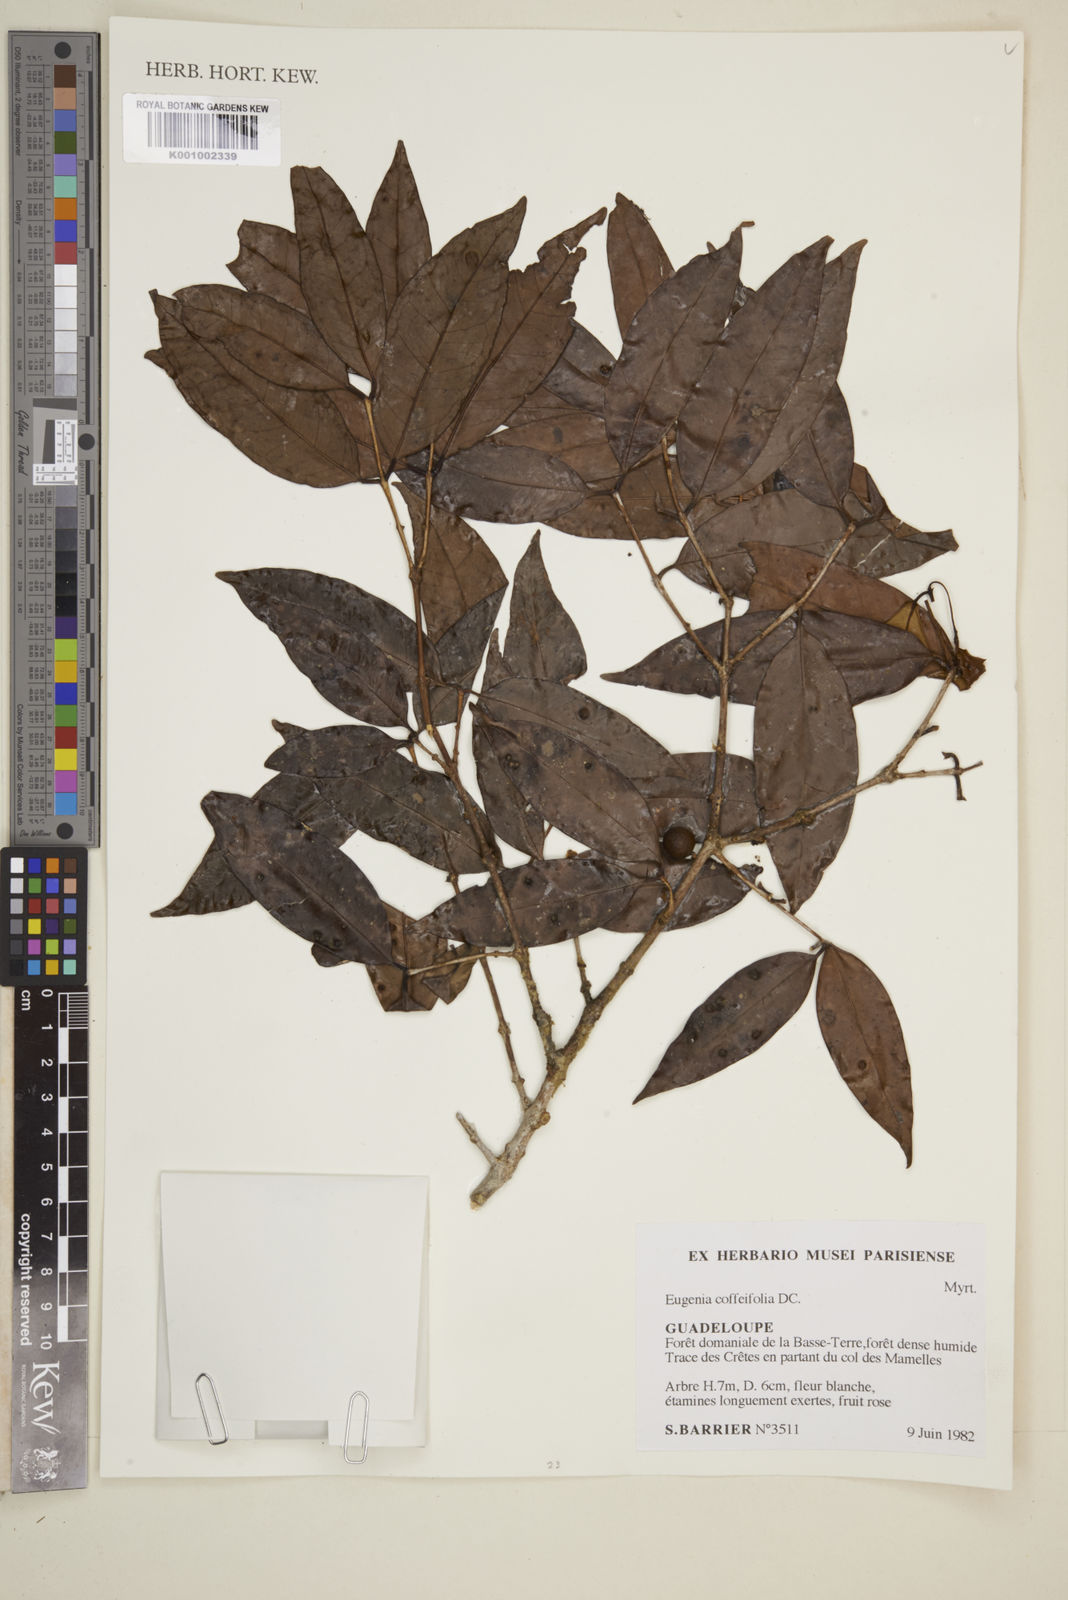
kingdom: Plantae
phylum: Tracheophyta
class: Magnoliopsida
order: Myrtales
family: Myrtaceae
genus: Eugenia
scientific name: Eugenia coffeifolia
